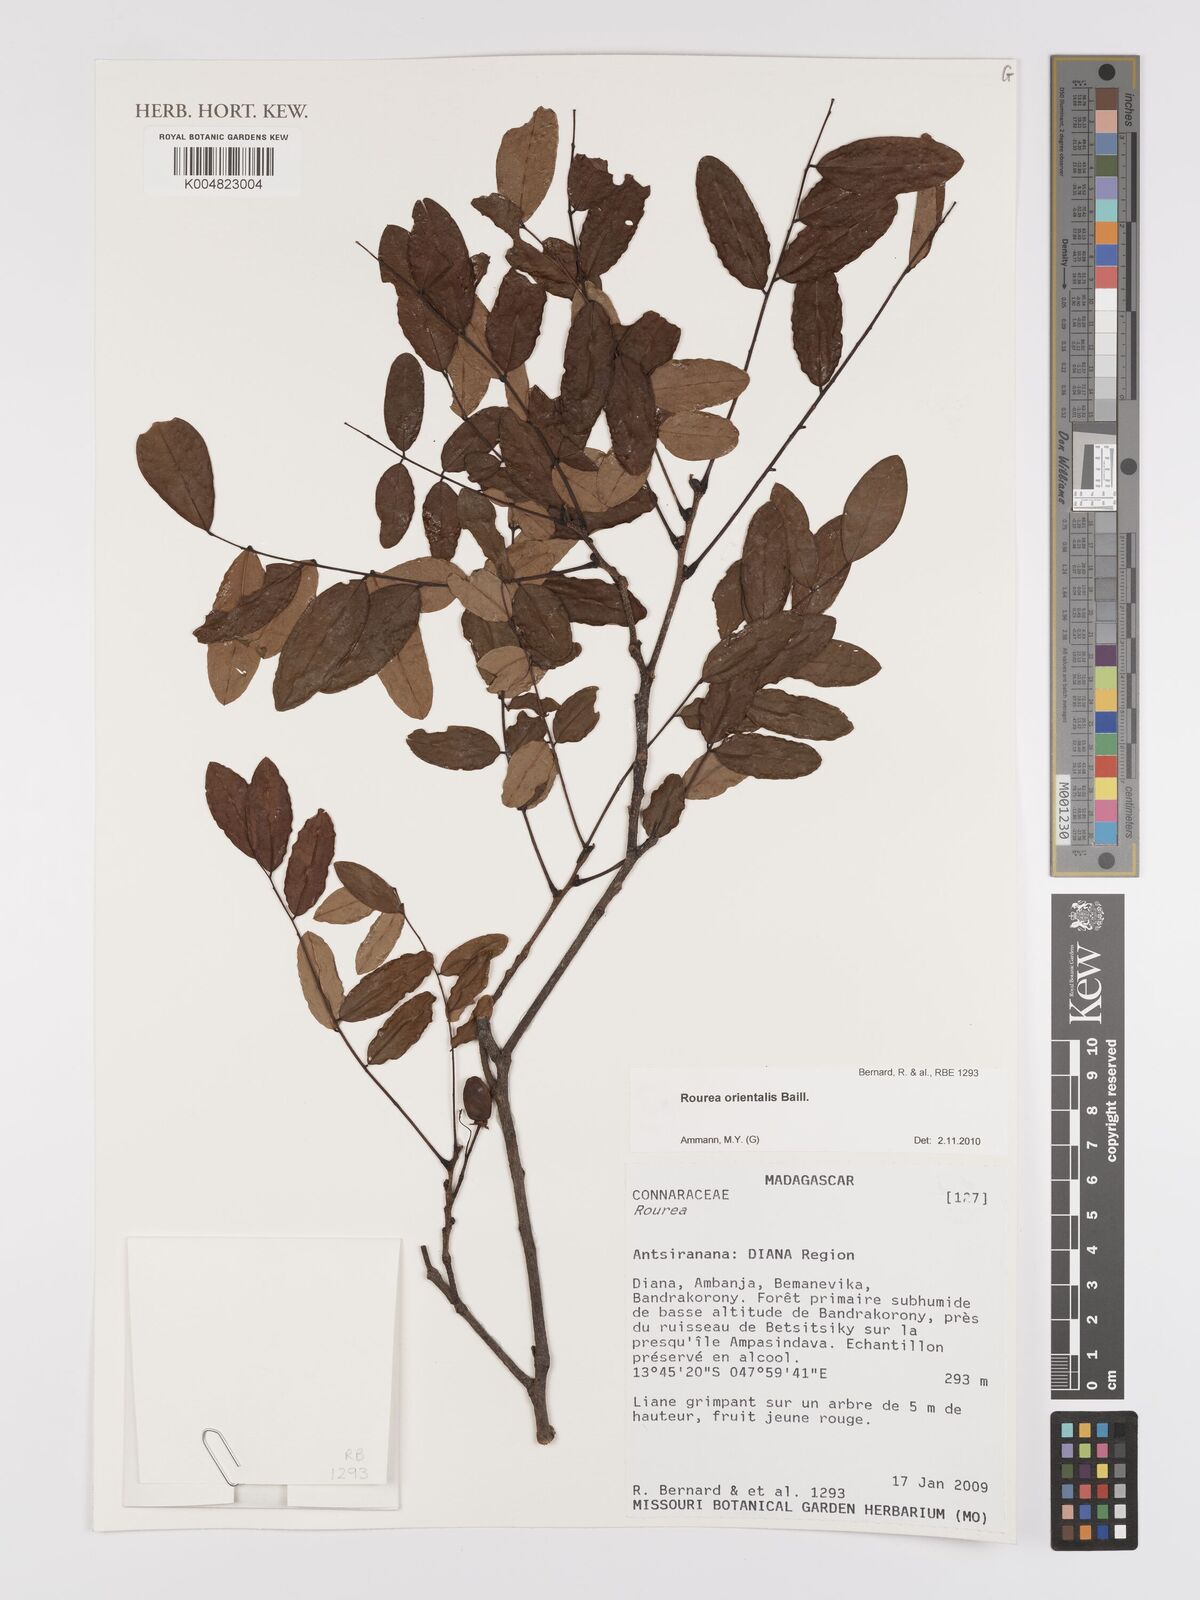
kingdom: Plantae
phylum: Tracheophyta
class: Magnoliopsida
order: Oxalidales
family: Connaraceae
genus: Rourea
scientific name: Rourea orientalis
